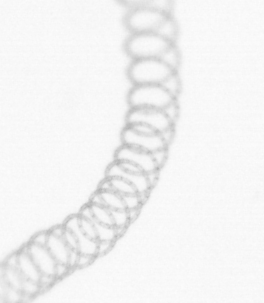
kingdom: Chromista
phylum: Ochrophyta
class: Bacillariophyceae
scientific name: Bacillariophyceae
